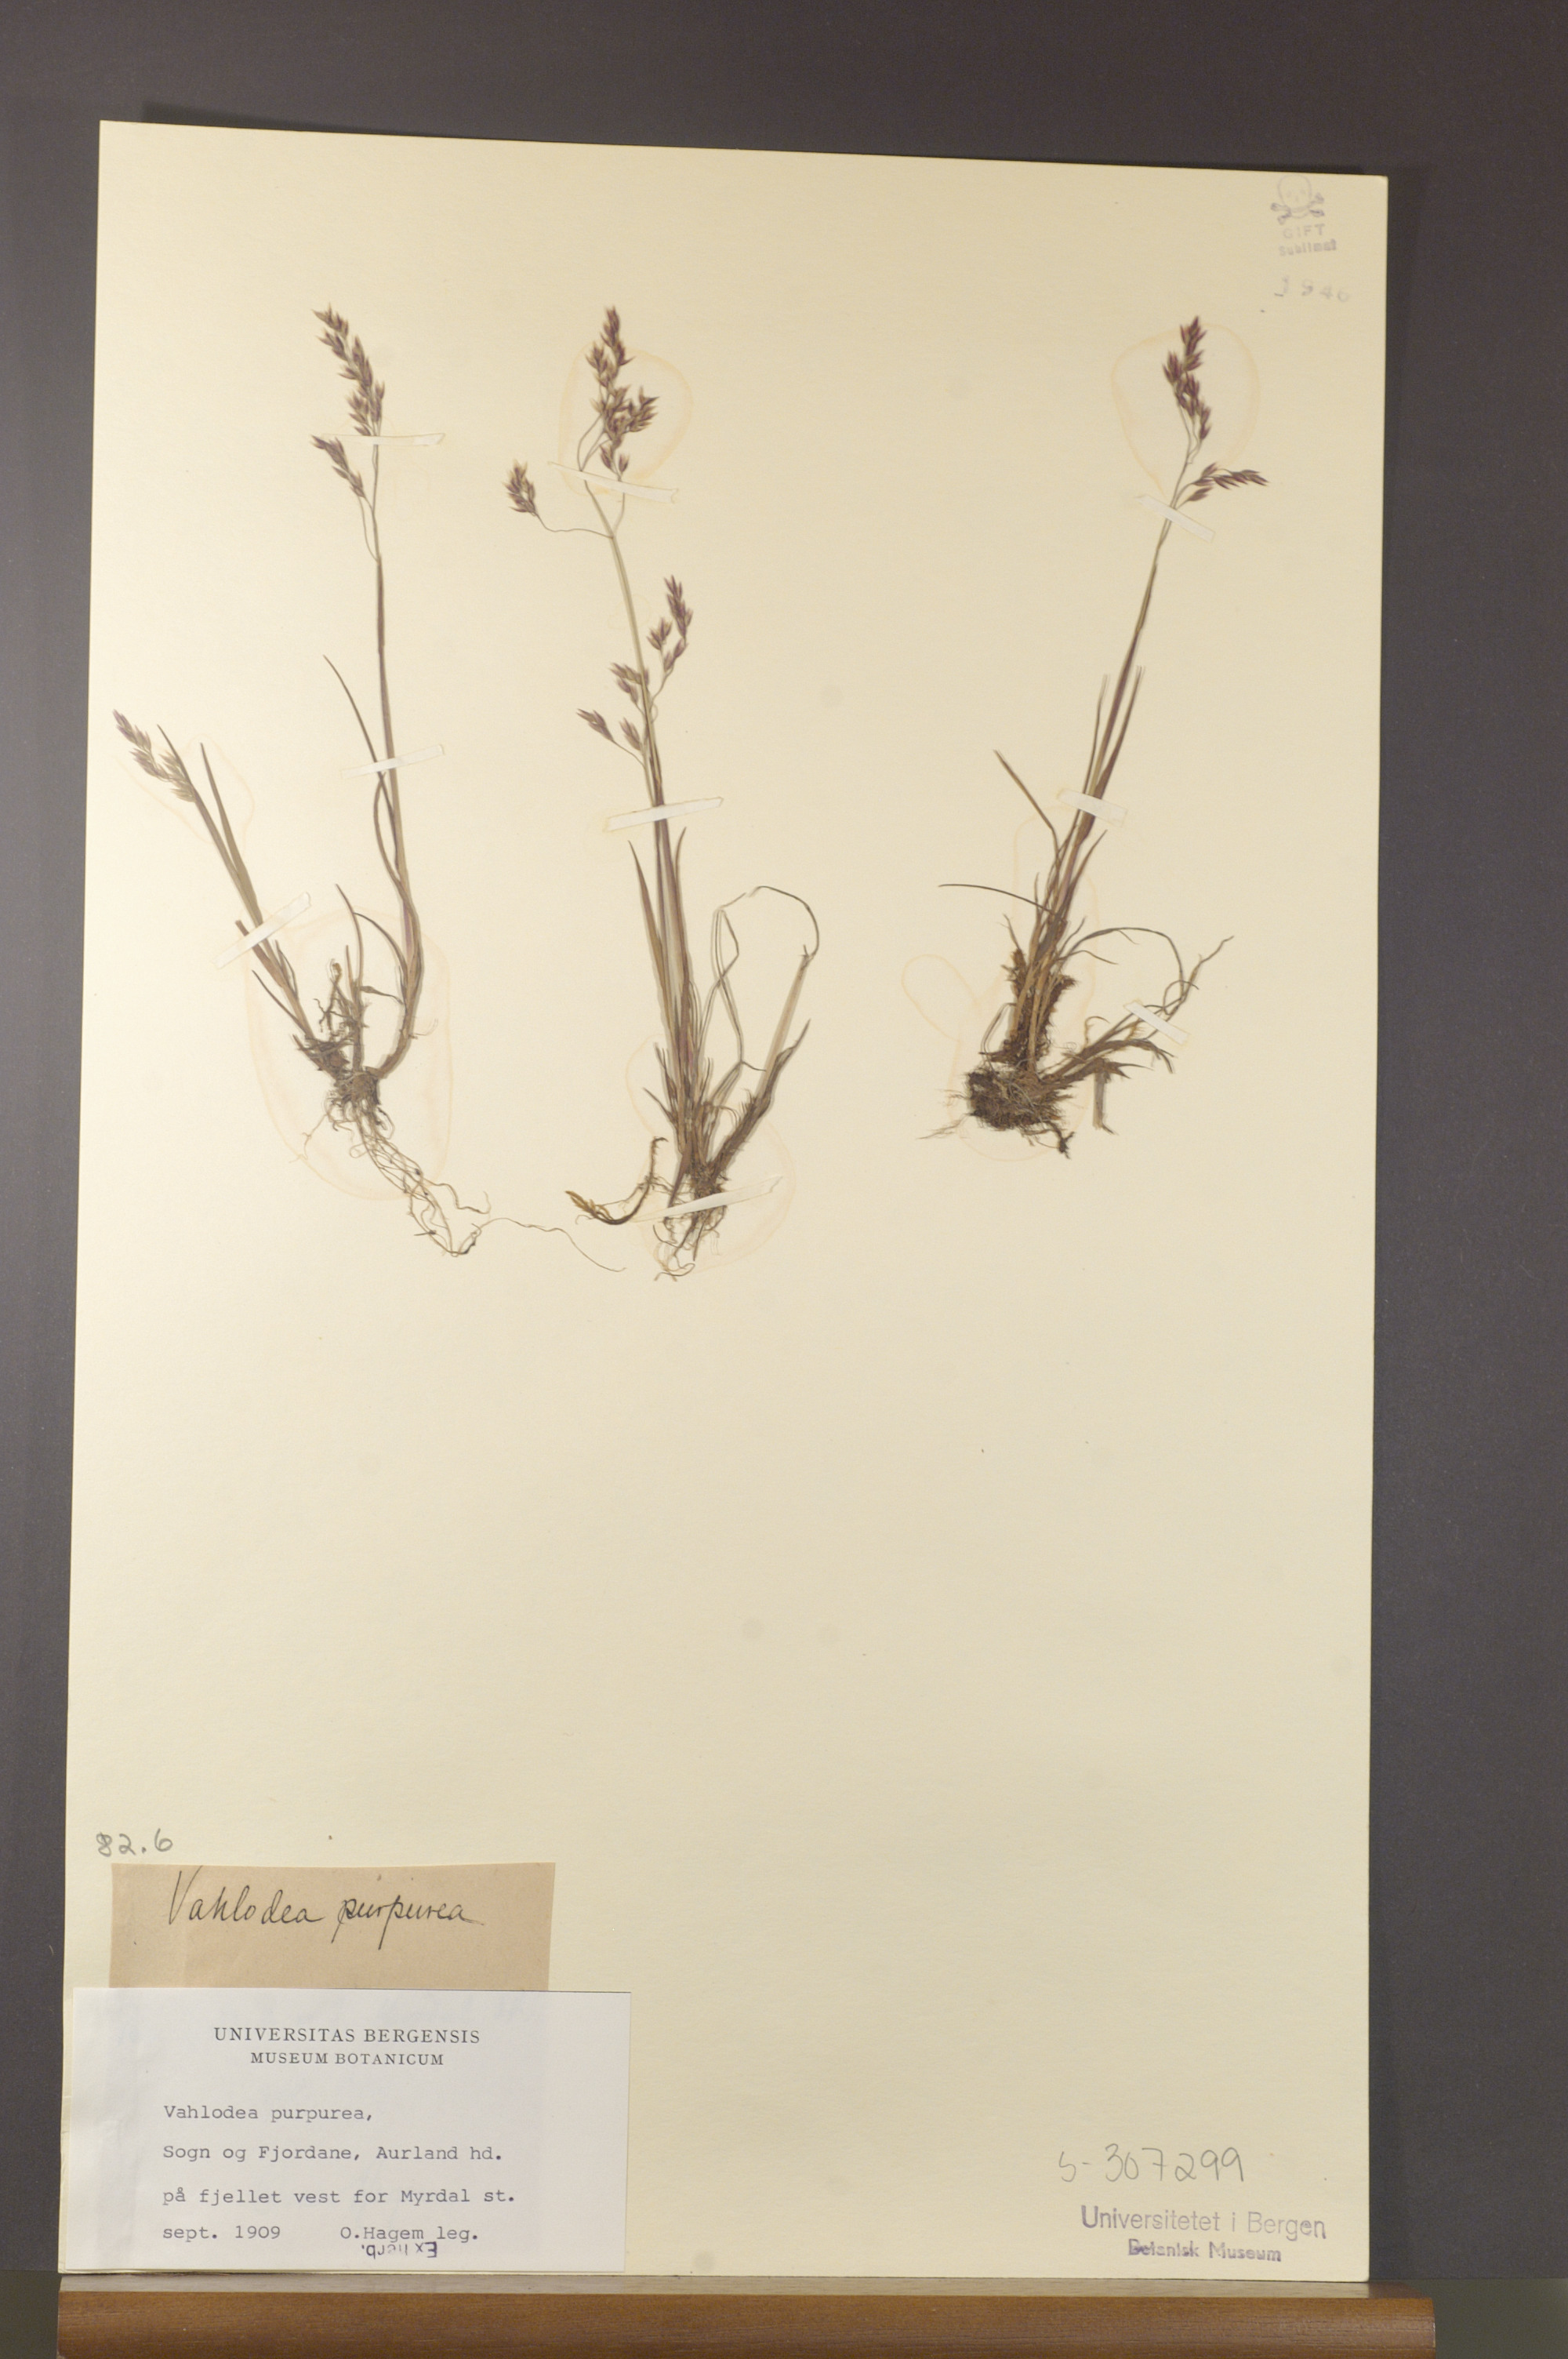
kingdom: Plantae
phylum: Tracheophyta
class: Liliopsida
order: Poales
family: Poaceae
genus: Vahlodea
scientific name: Vahlodea atropurpurea
